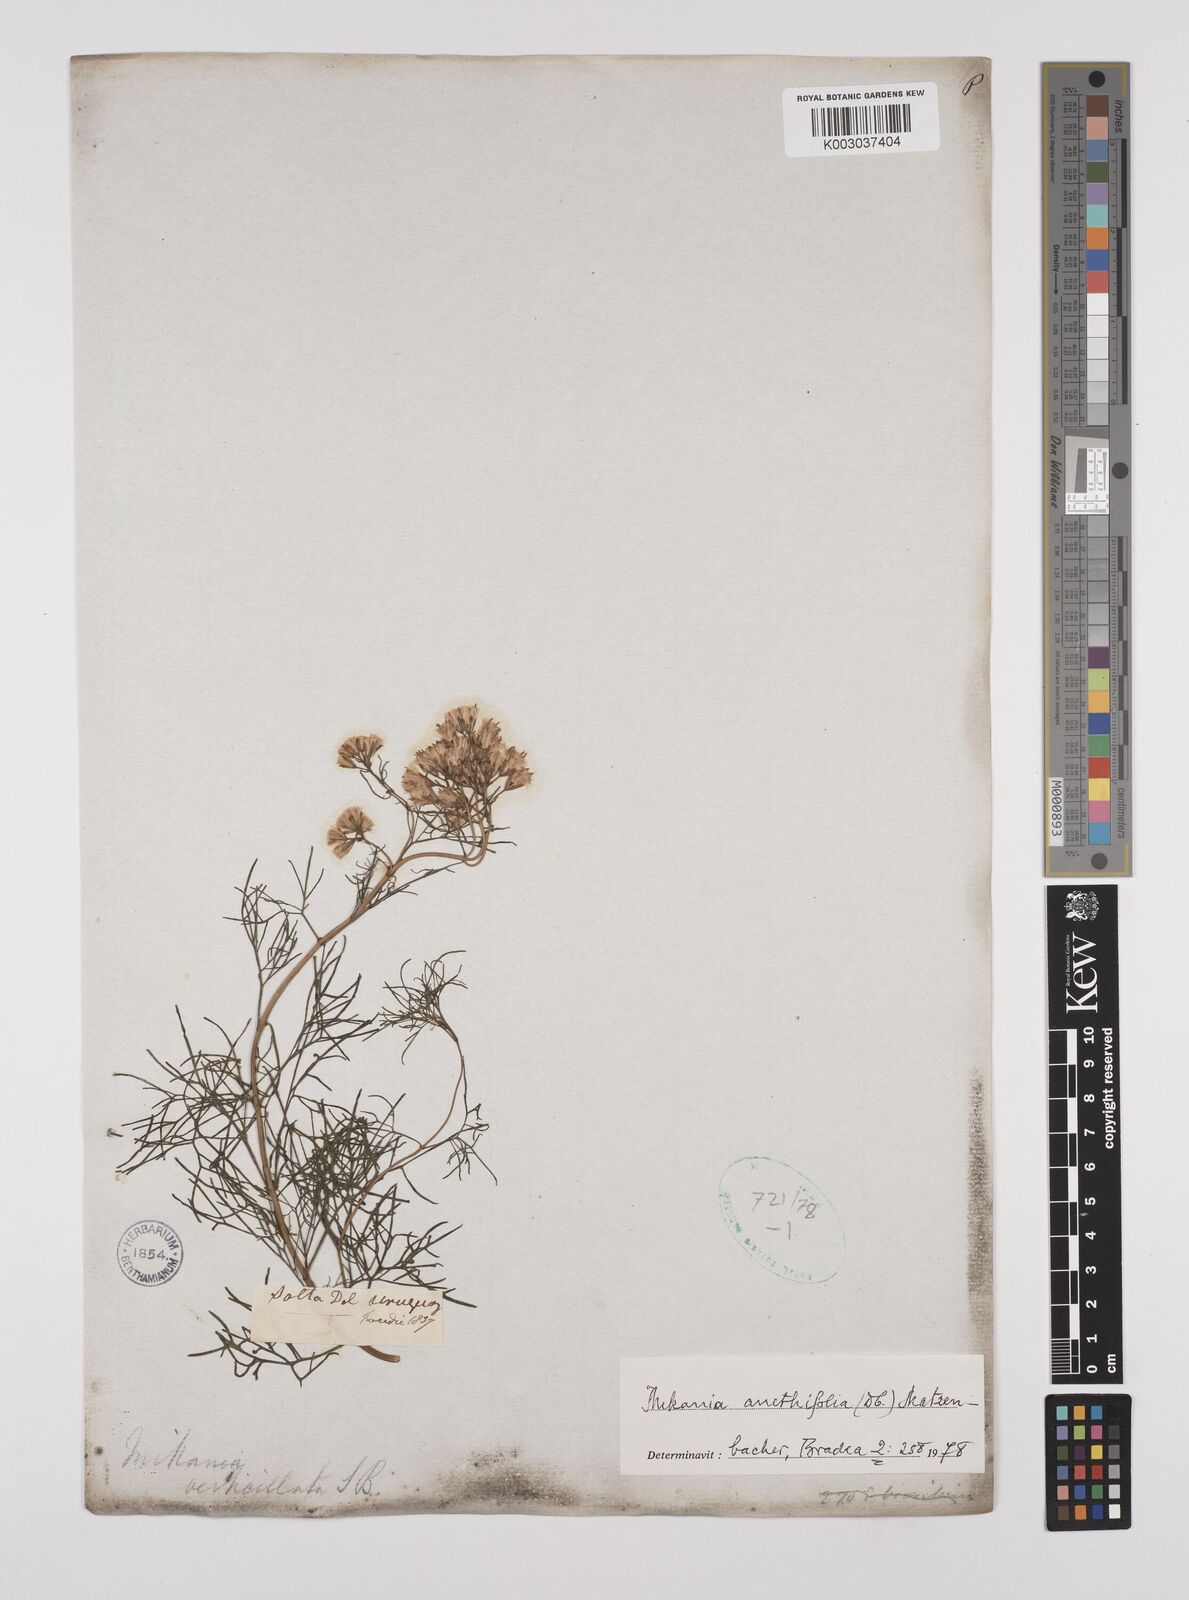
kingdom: Plantae
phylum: Tracheophyta
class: Magnoliopsida
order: Asterales
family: Asteraceae
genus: Mikania
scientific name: Mikania anethifolia
